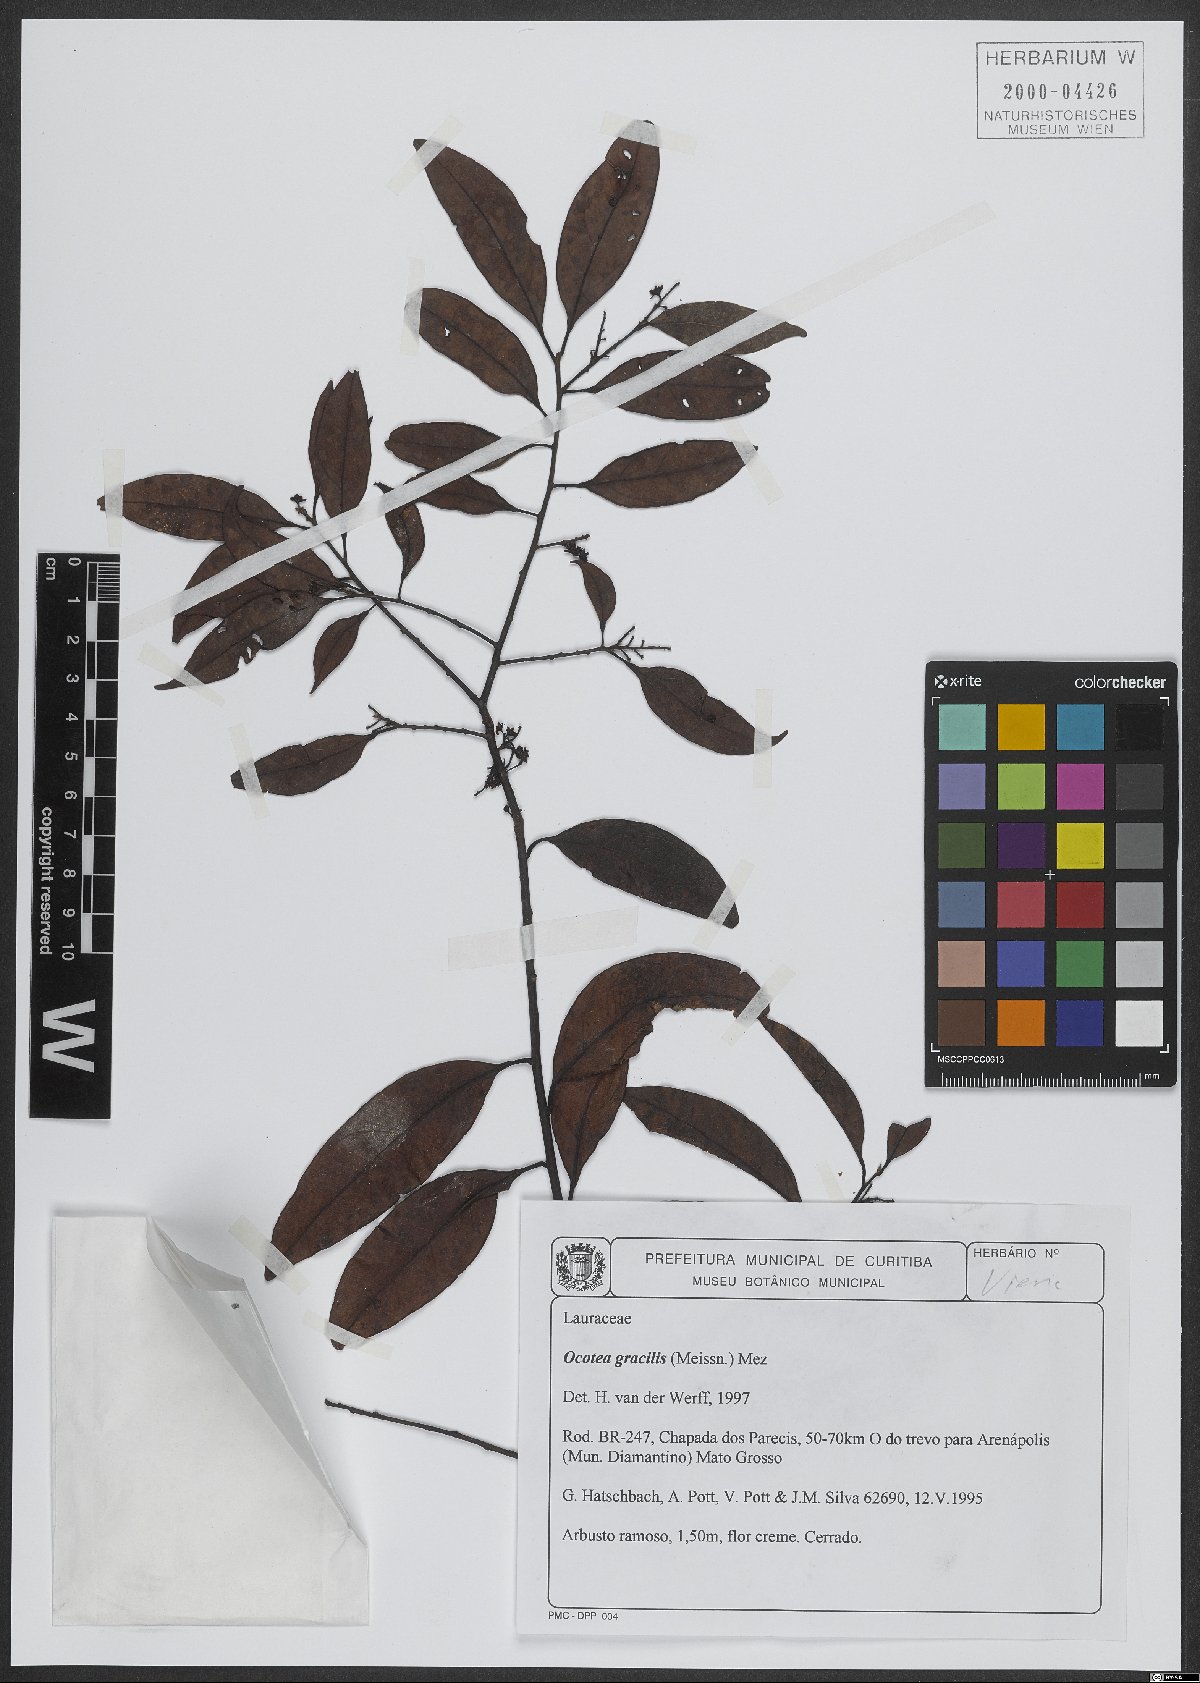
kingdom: Plantae
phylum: Tracheophyta
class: Magnoliopsida
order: Laurales
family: Lauraceae
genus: Ocotea
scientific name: Ocotea gracilis
